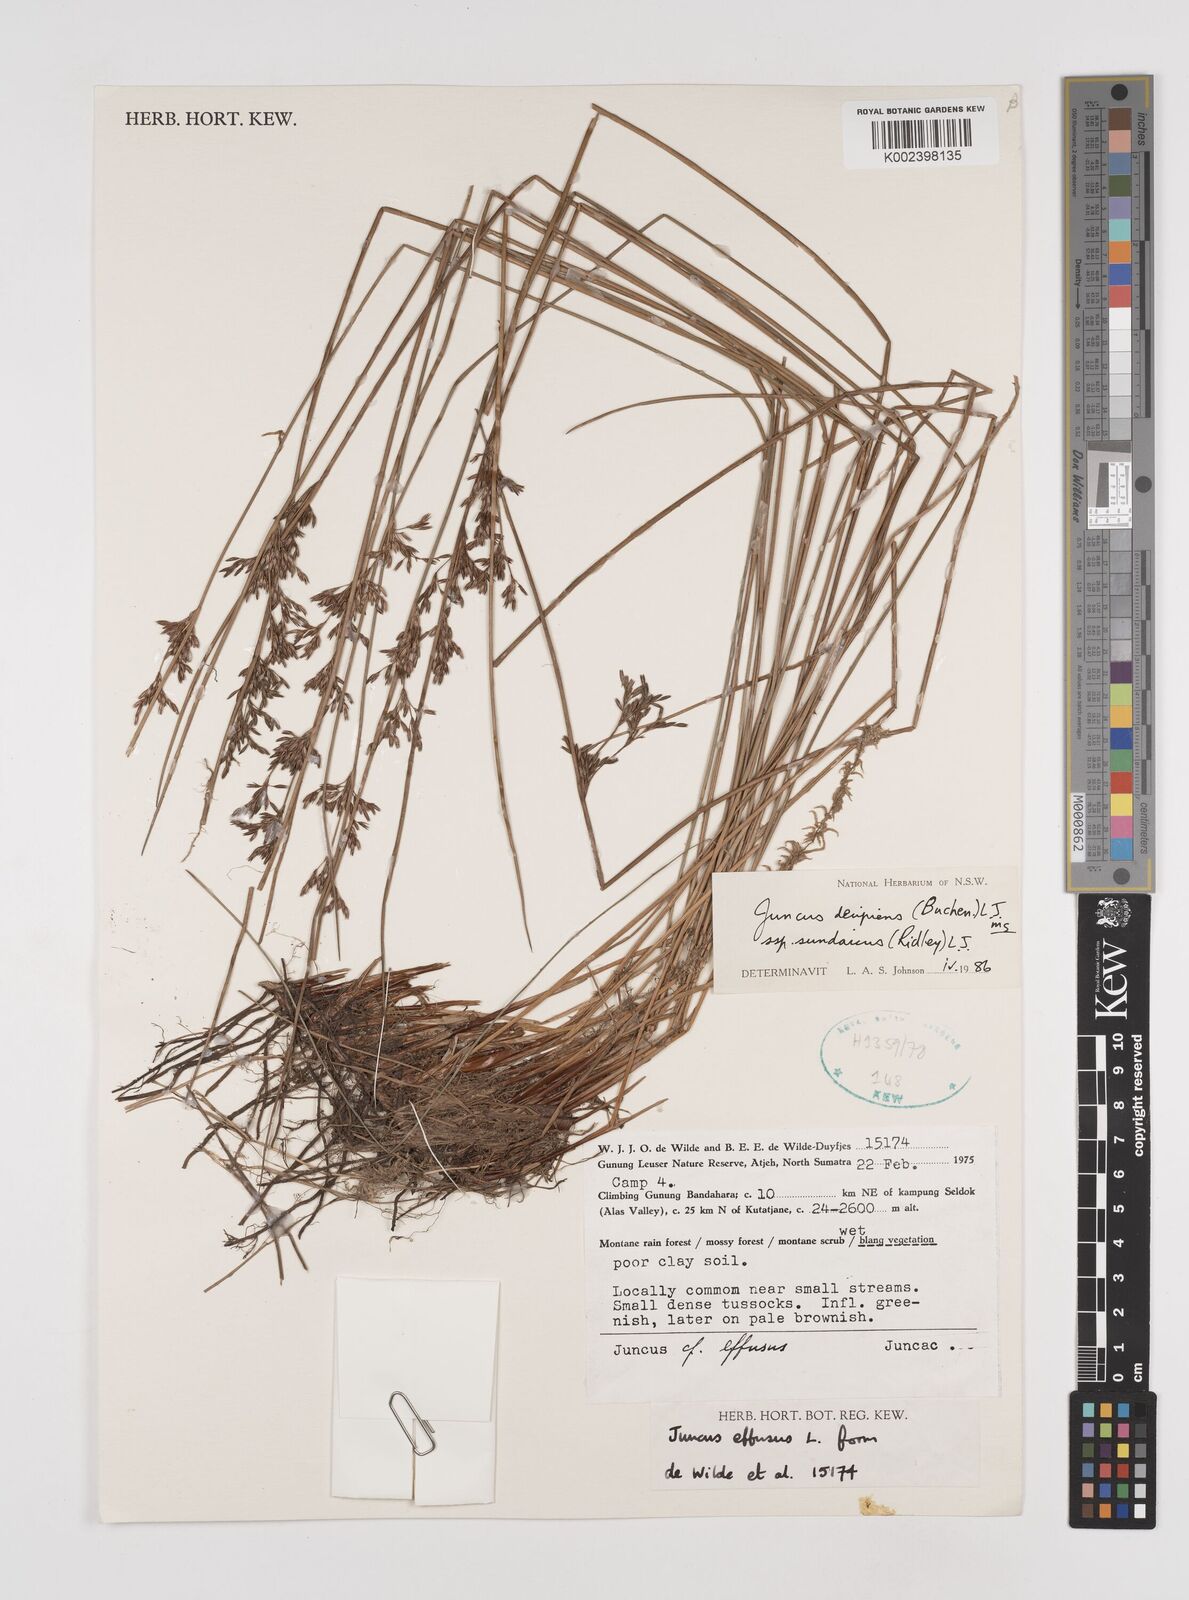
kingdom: Plantae
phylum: Tracheophyta
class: Liliopsida
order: Poales
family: Juncaceae
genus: Juncus
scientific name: Juncus decipiens
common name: Lamp rush
